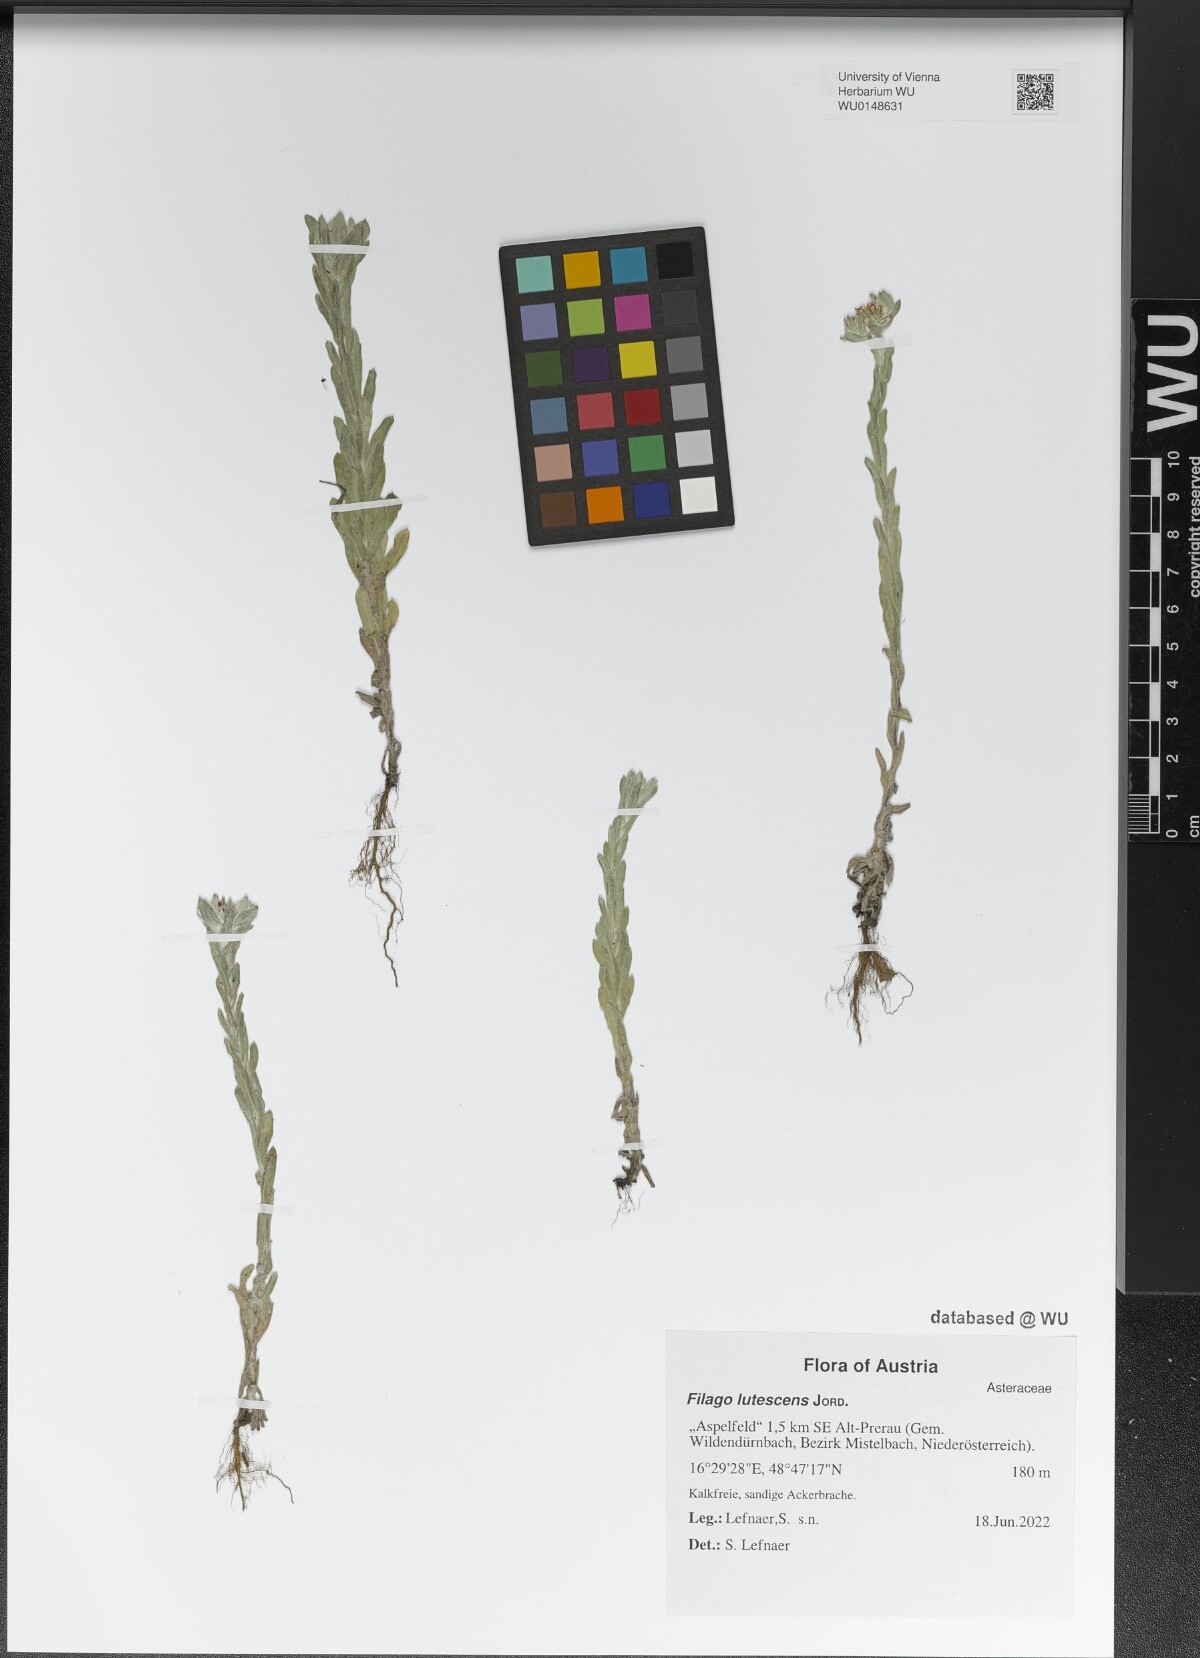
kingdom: Plantae
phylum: Tracheophyta
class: Magnoliopsida
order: Asterales
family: Asteraceae
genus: Filago
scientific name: Filago lutescens
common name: Red-tipped cudweed
